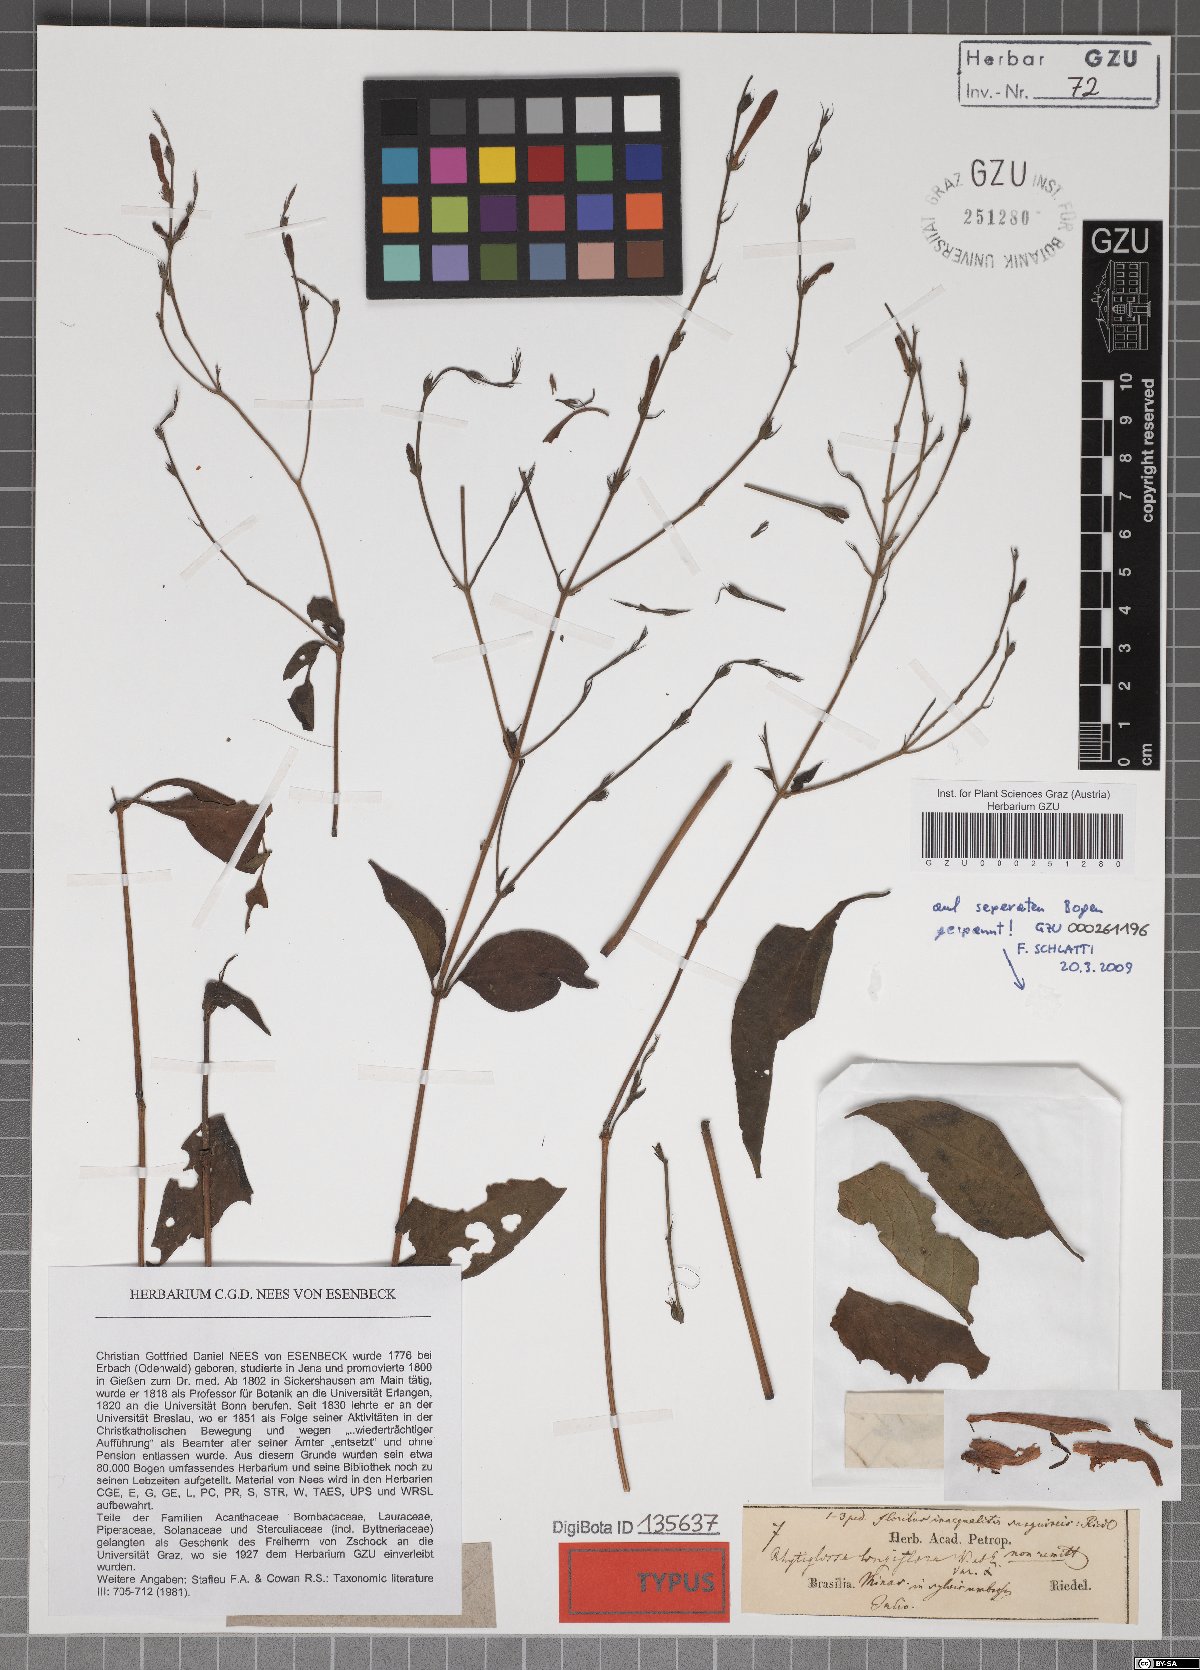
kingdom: Plantae
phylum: Tracheophyta
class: Magnoliopsida
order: Lamiales
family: Acanthaceae
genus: Dianthera
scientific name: Dianthera longiflora
